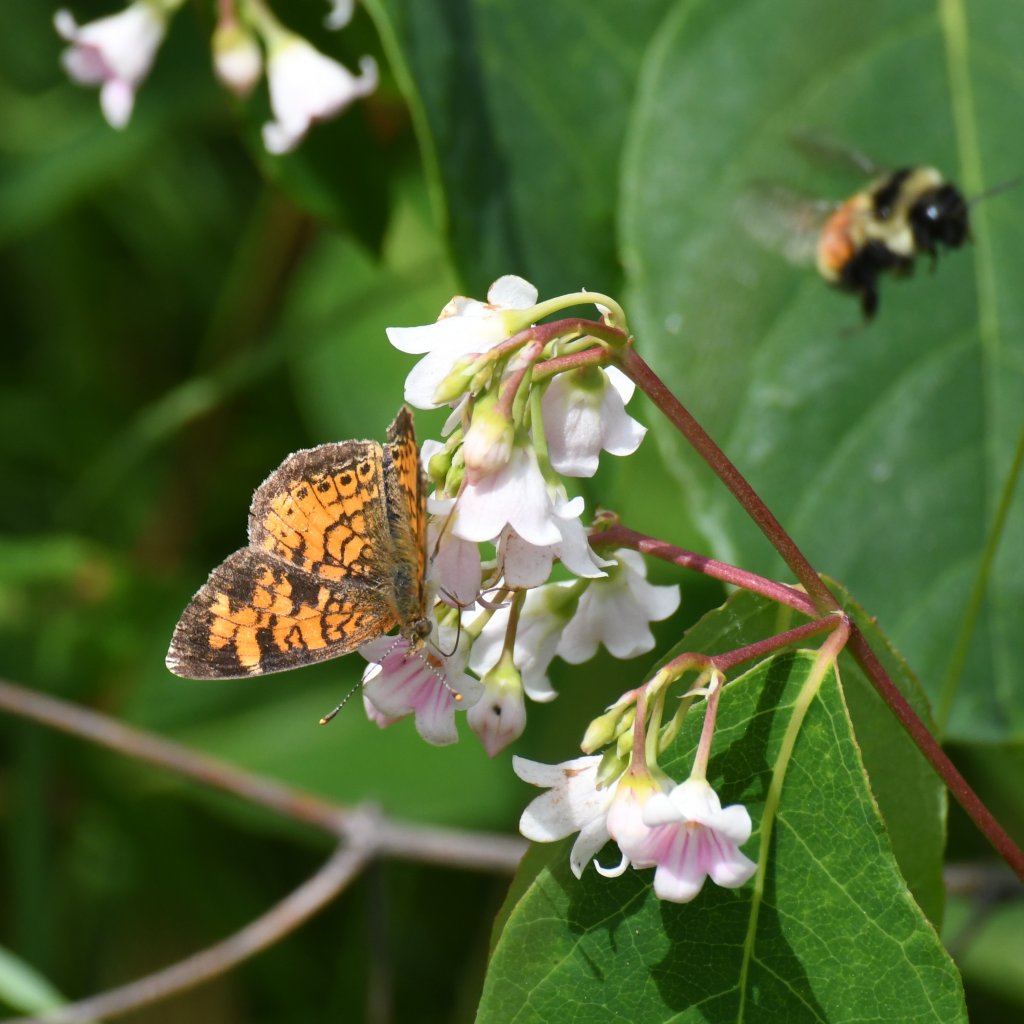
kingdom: Animalia
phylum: Arthropoda
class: Insecta
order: Lepidoptera
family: Nymphalidae
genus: Phyciodes
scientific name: Phyciodes tharos
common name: Northern Crescent
